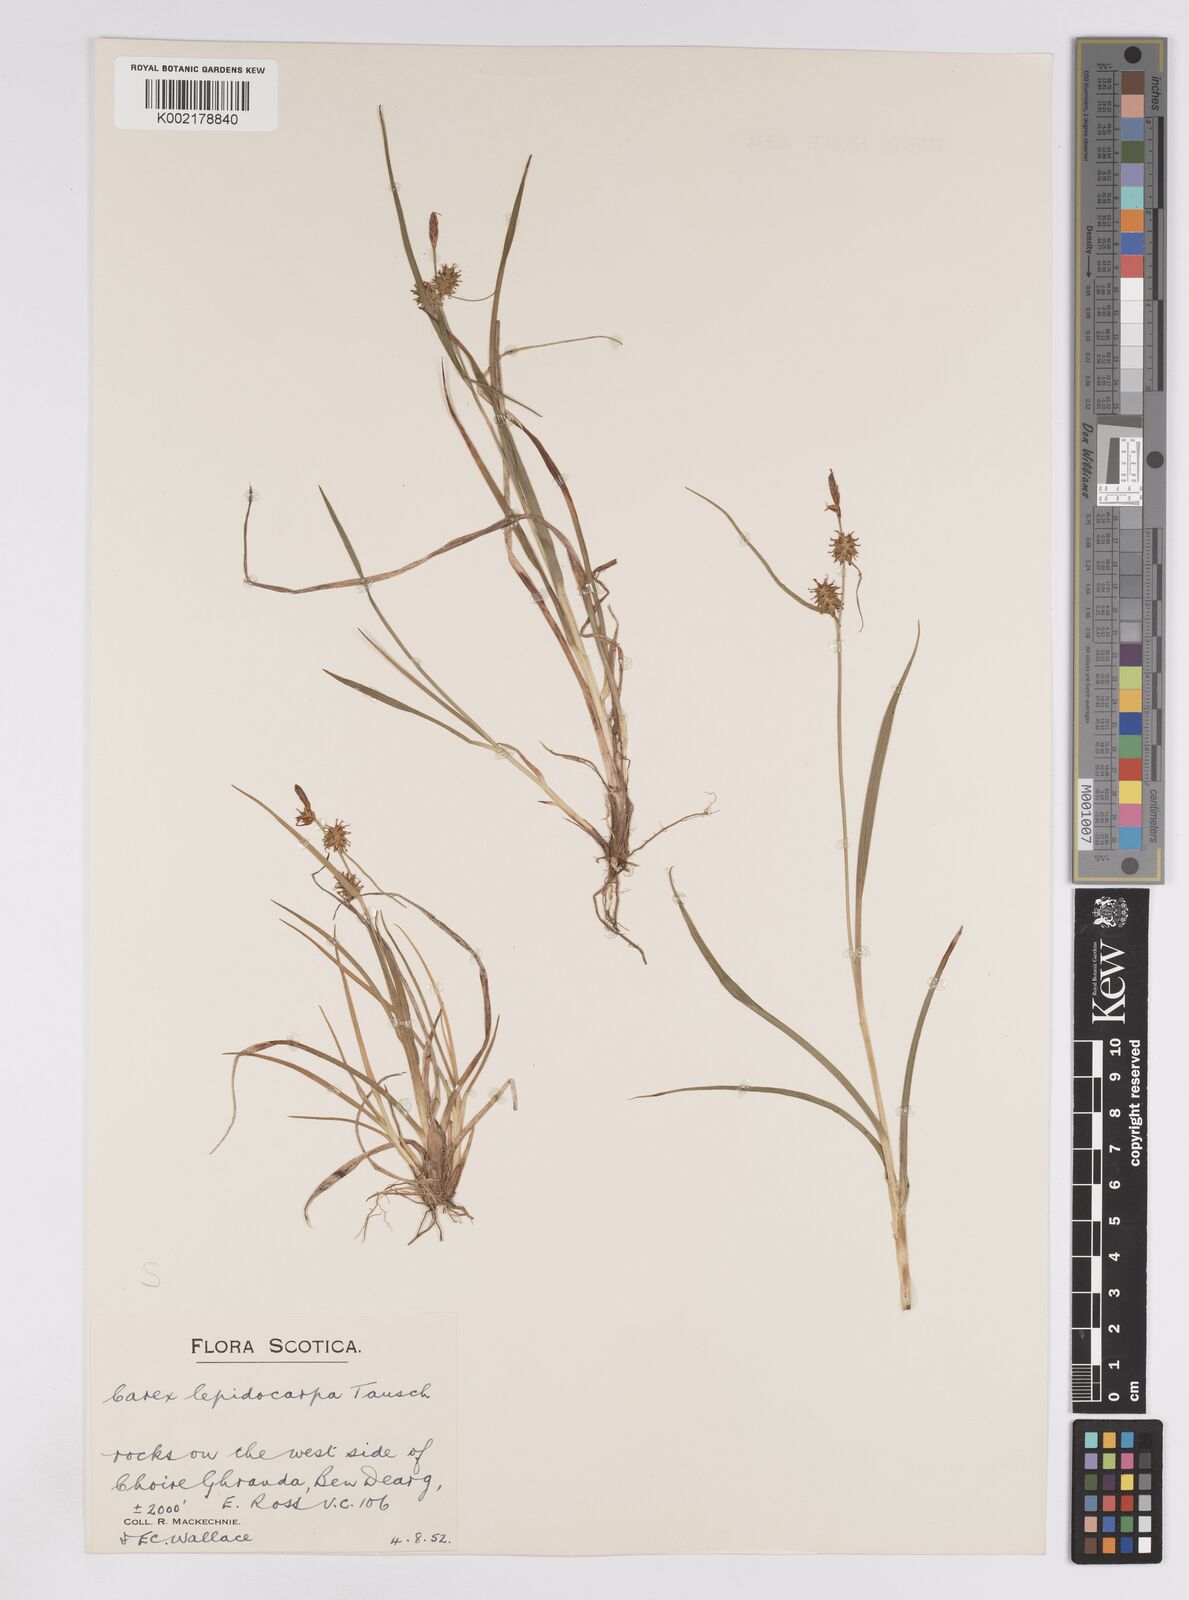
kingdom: Plantae
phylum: Tracheophyta
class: Liliopsida
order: Poales
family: Cyperaceae
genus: Carex
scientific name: Carex lepidocarpa
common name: Long-stalked yellow-sedge
